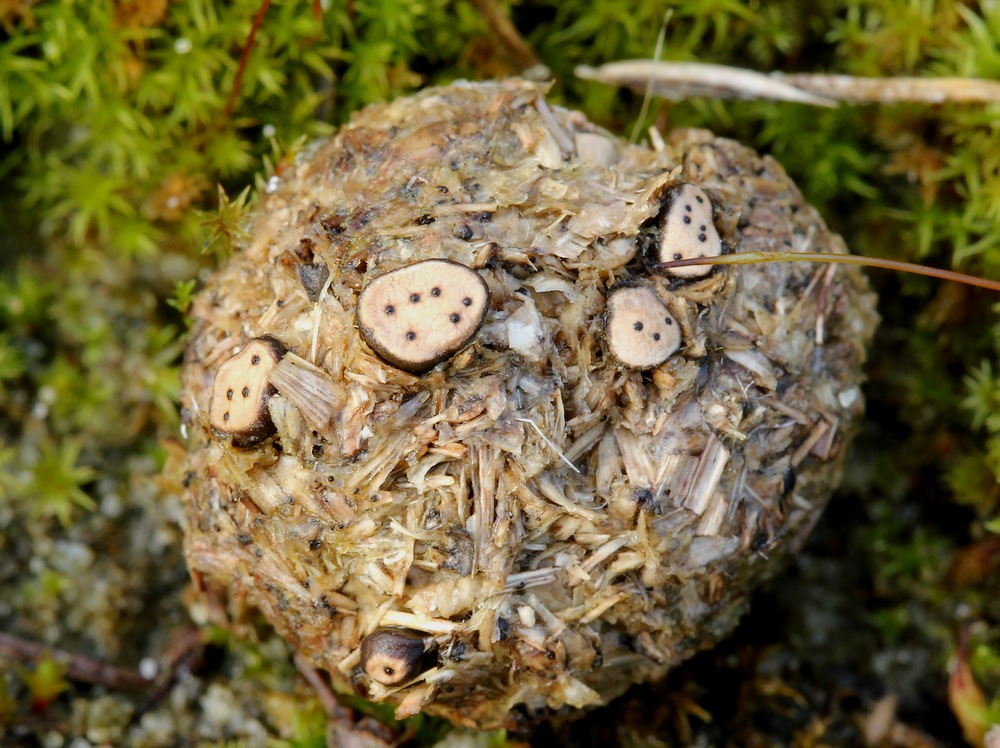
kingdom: Fungi
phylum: Ascomycota
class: Sordariomycetes
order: Xylariales
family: Xylariaceae
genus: Poronia
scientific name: Poronia erici
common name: hare-priksvamp
